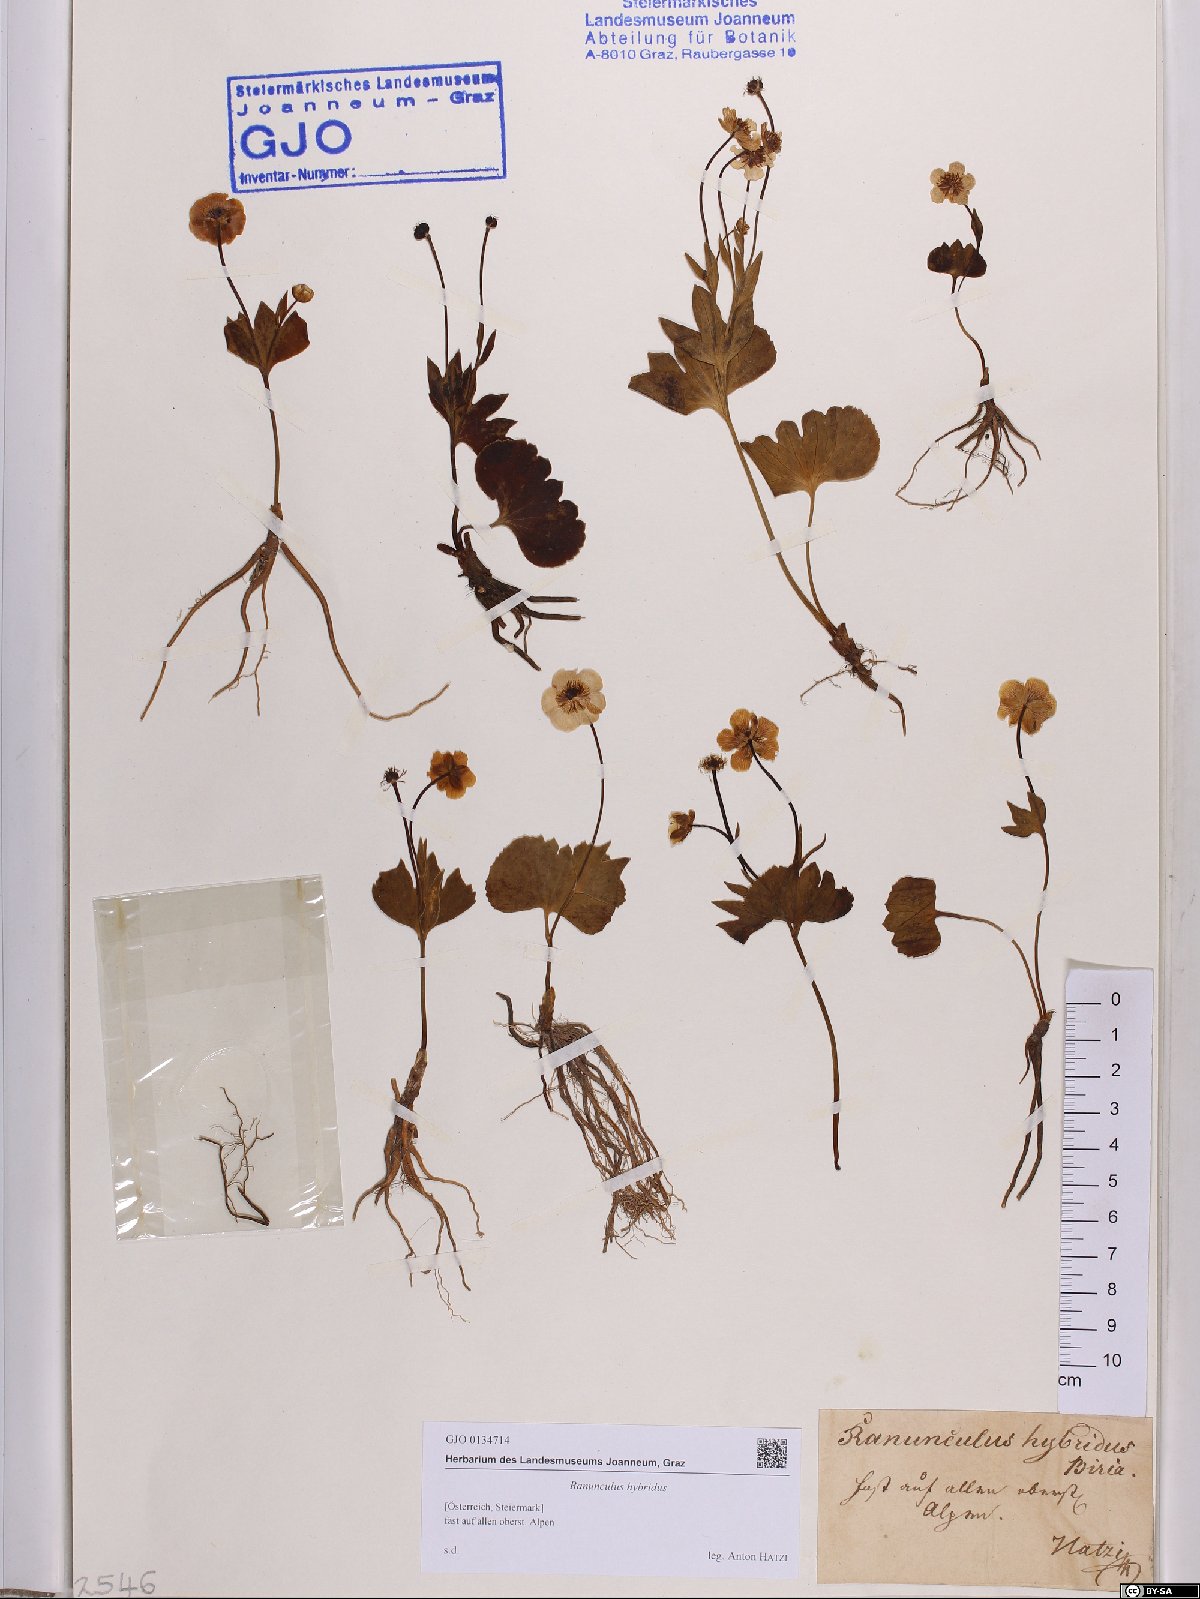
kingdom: Plantae
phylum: Tracheophyta
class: Magnoliopsida
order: Ranunculales
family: Ranunculaceae
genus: Ranunculus
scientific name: Ranunculus hybridus
